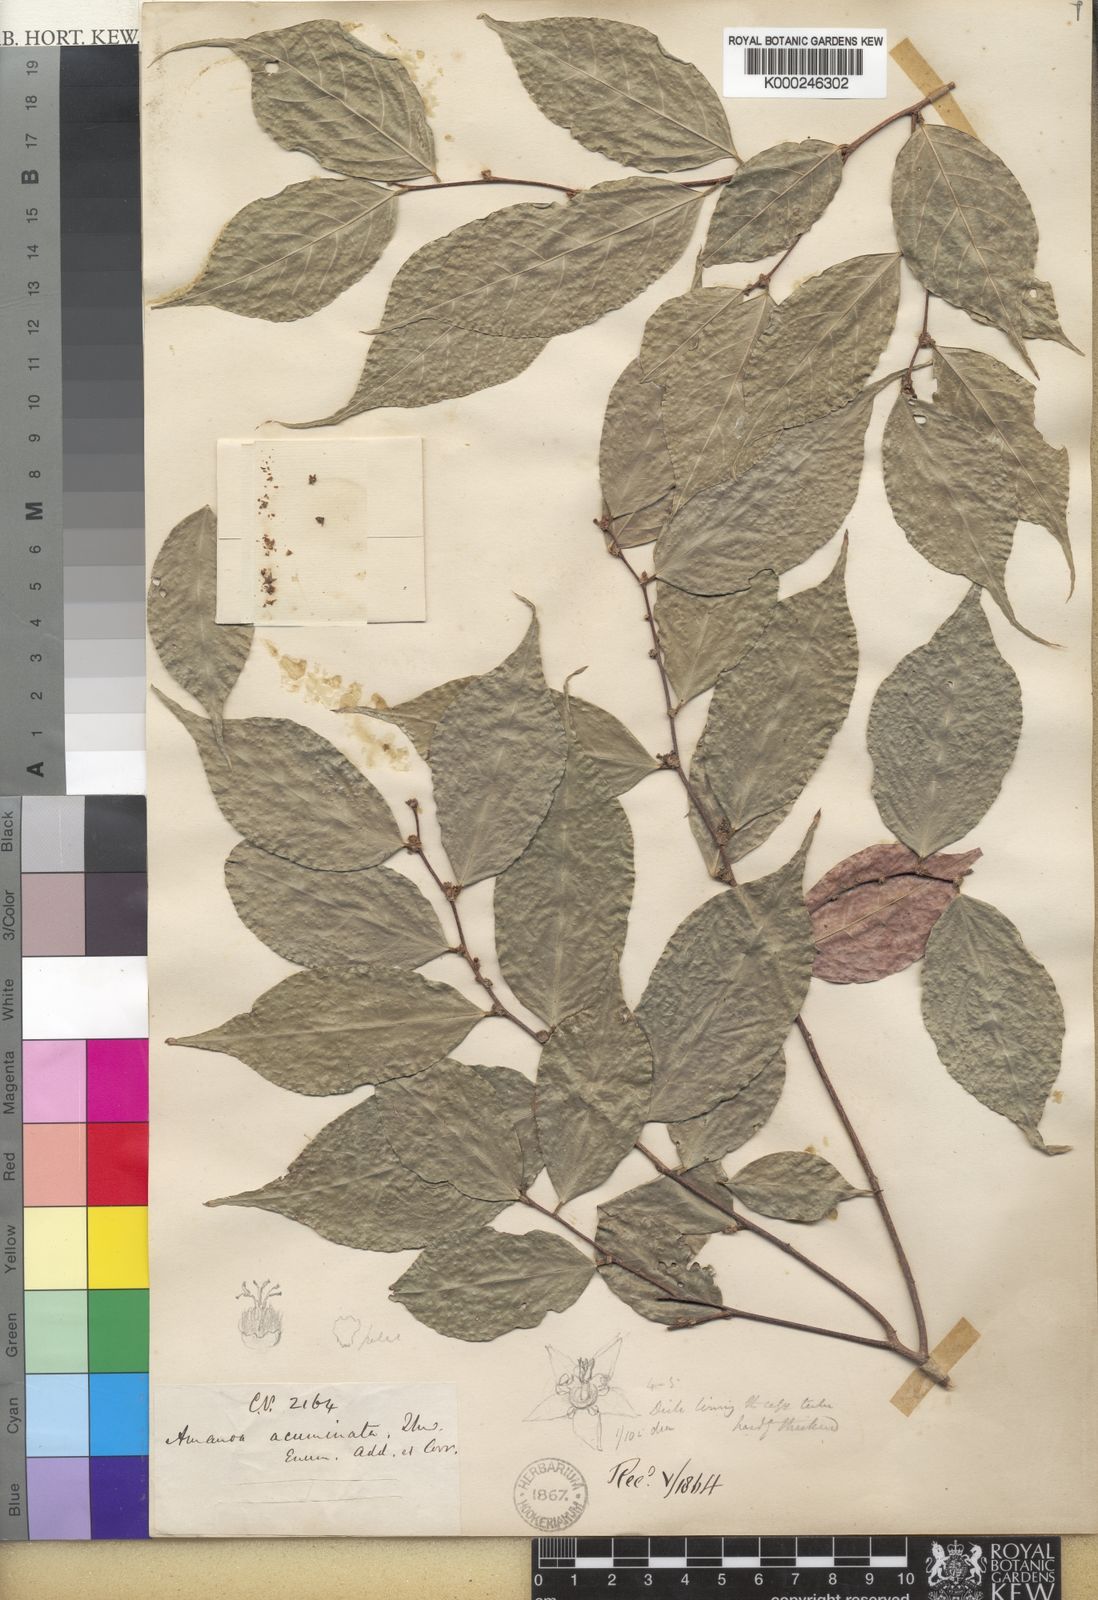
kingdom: Plantae
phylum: Tracheophyta
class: Magnoliopsida
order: Malpighiales
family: Phyllanthaceae
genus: Cleistanthus
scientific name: Cleistanthus
